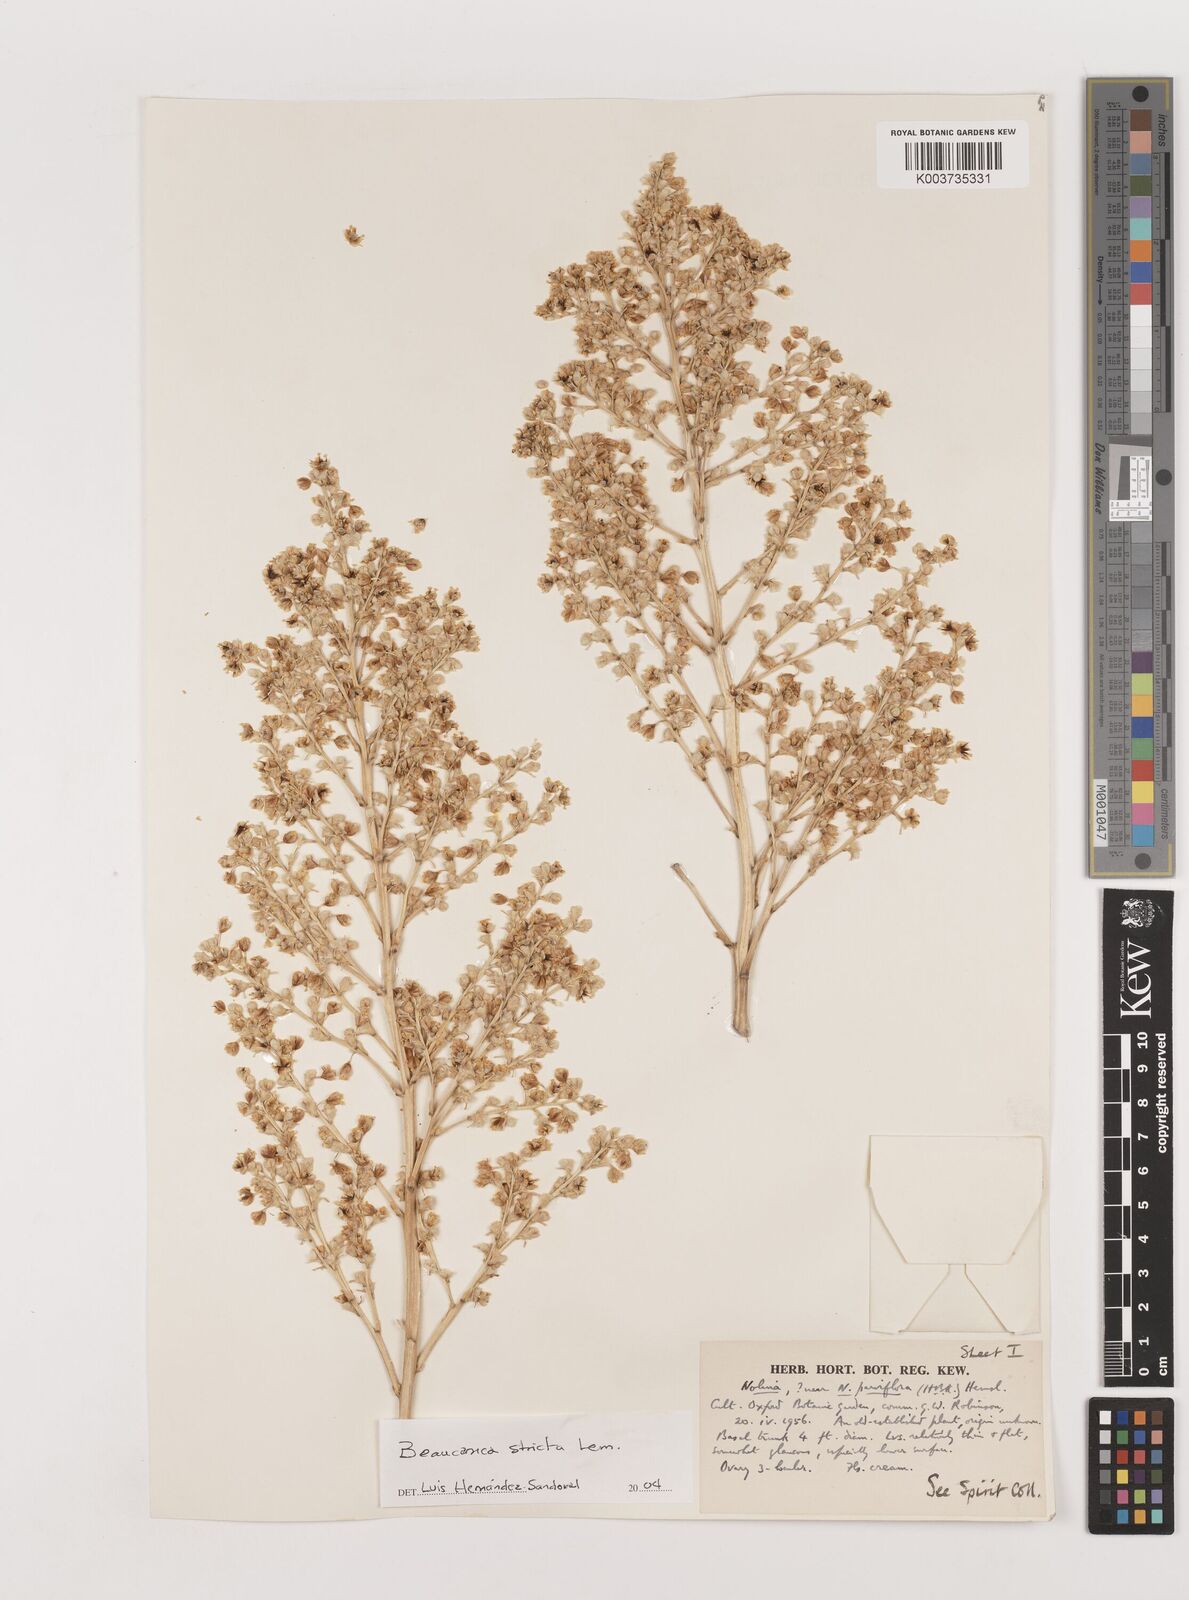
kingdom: Plantae
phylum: Tracheophyta
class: Liliopsida
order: Asparagales
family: Asparagaceae
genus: Beaucarnea
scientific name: Beaucarnea stricta
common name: Bottle palm
